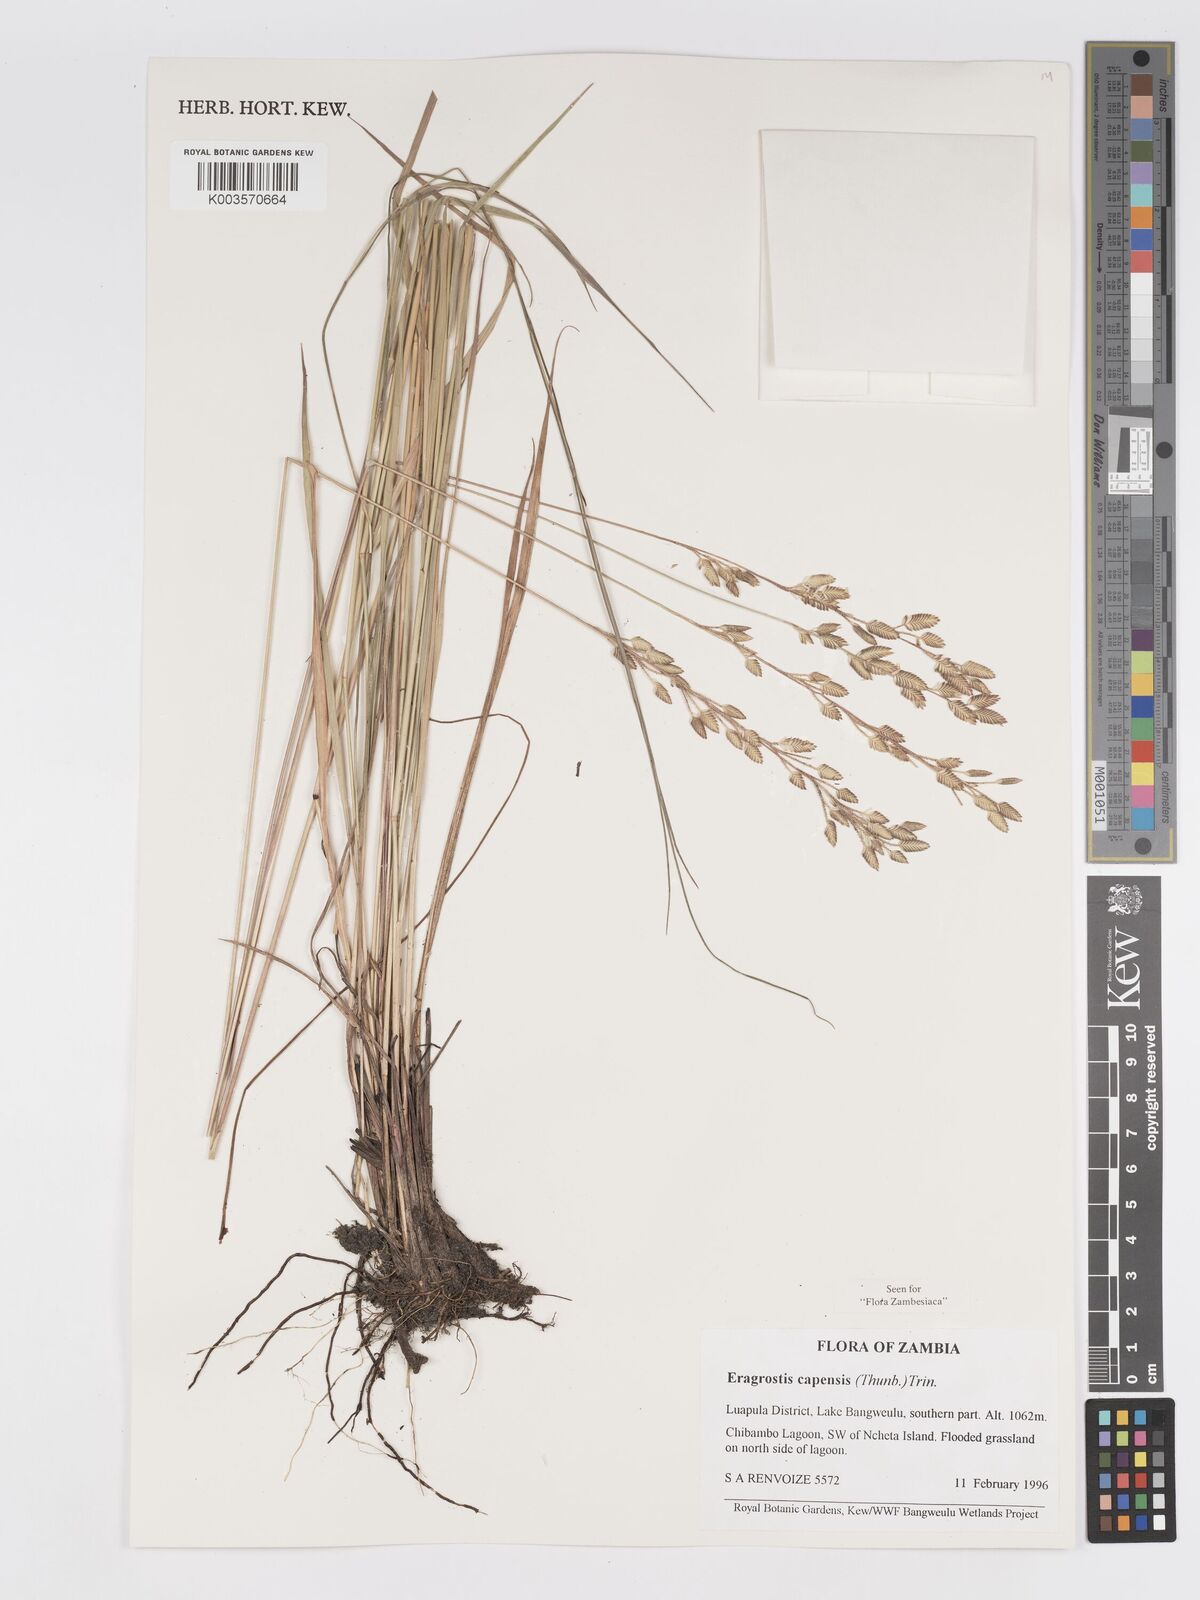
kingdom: Plantae
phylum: Tracheophyta
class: Liliopsida
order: Poales
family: Poaceae
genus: Eragrostis
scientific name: Eragrostis capensis
